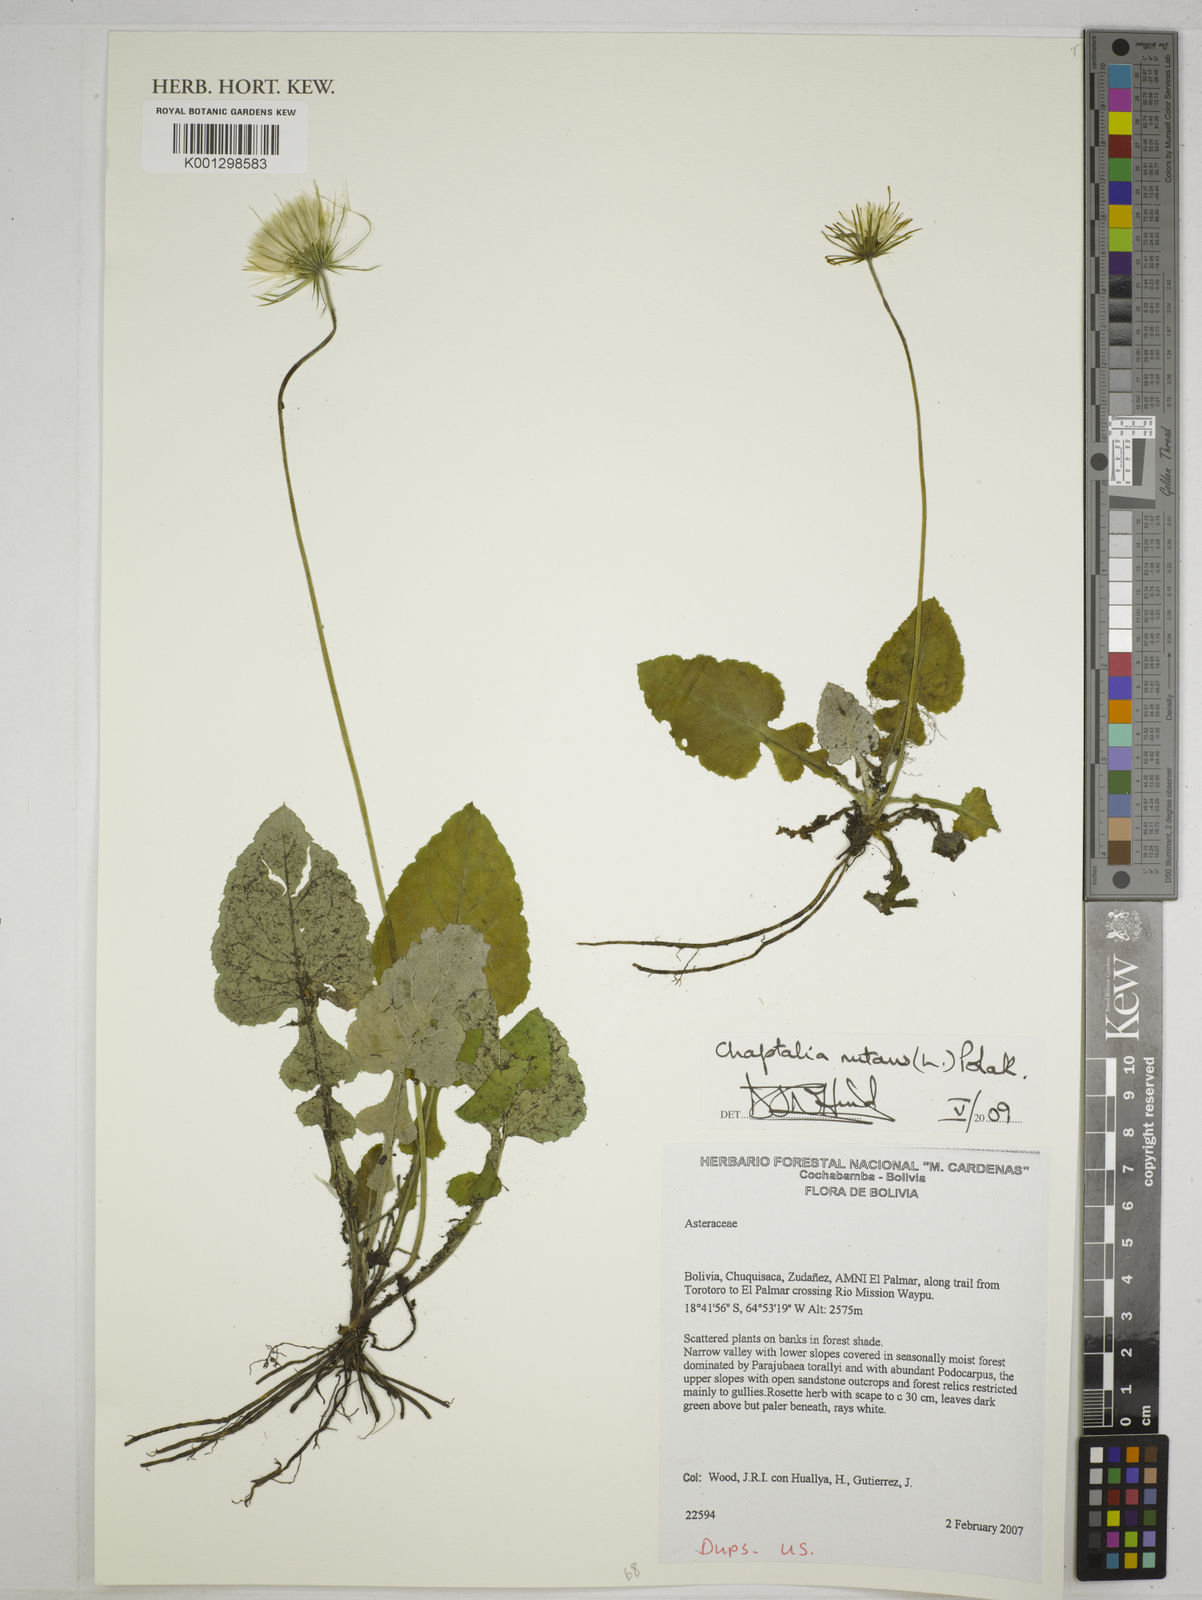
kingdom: Plantae
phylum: Tracheophyta
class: Magnoliopsida
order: Asterales
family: Asteraceae
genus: Chaptalia
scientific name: Chaptalia nutans
